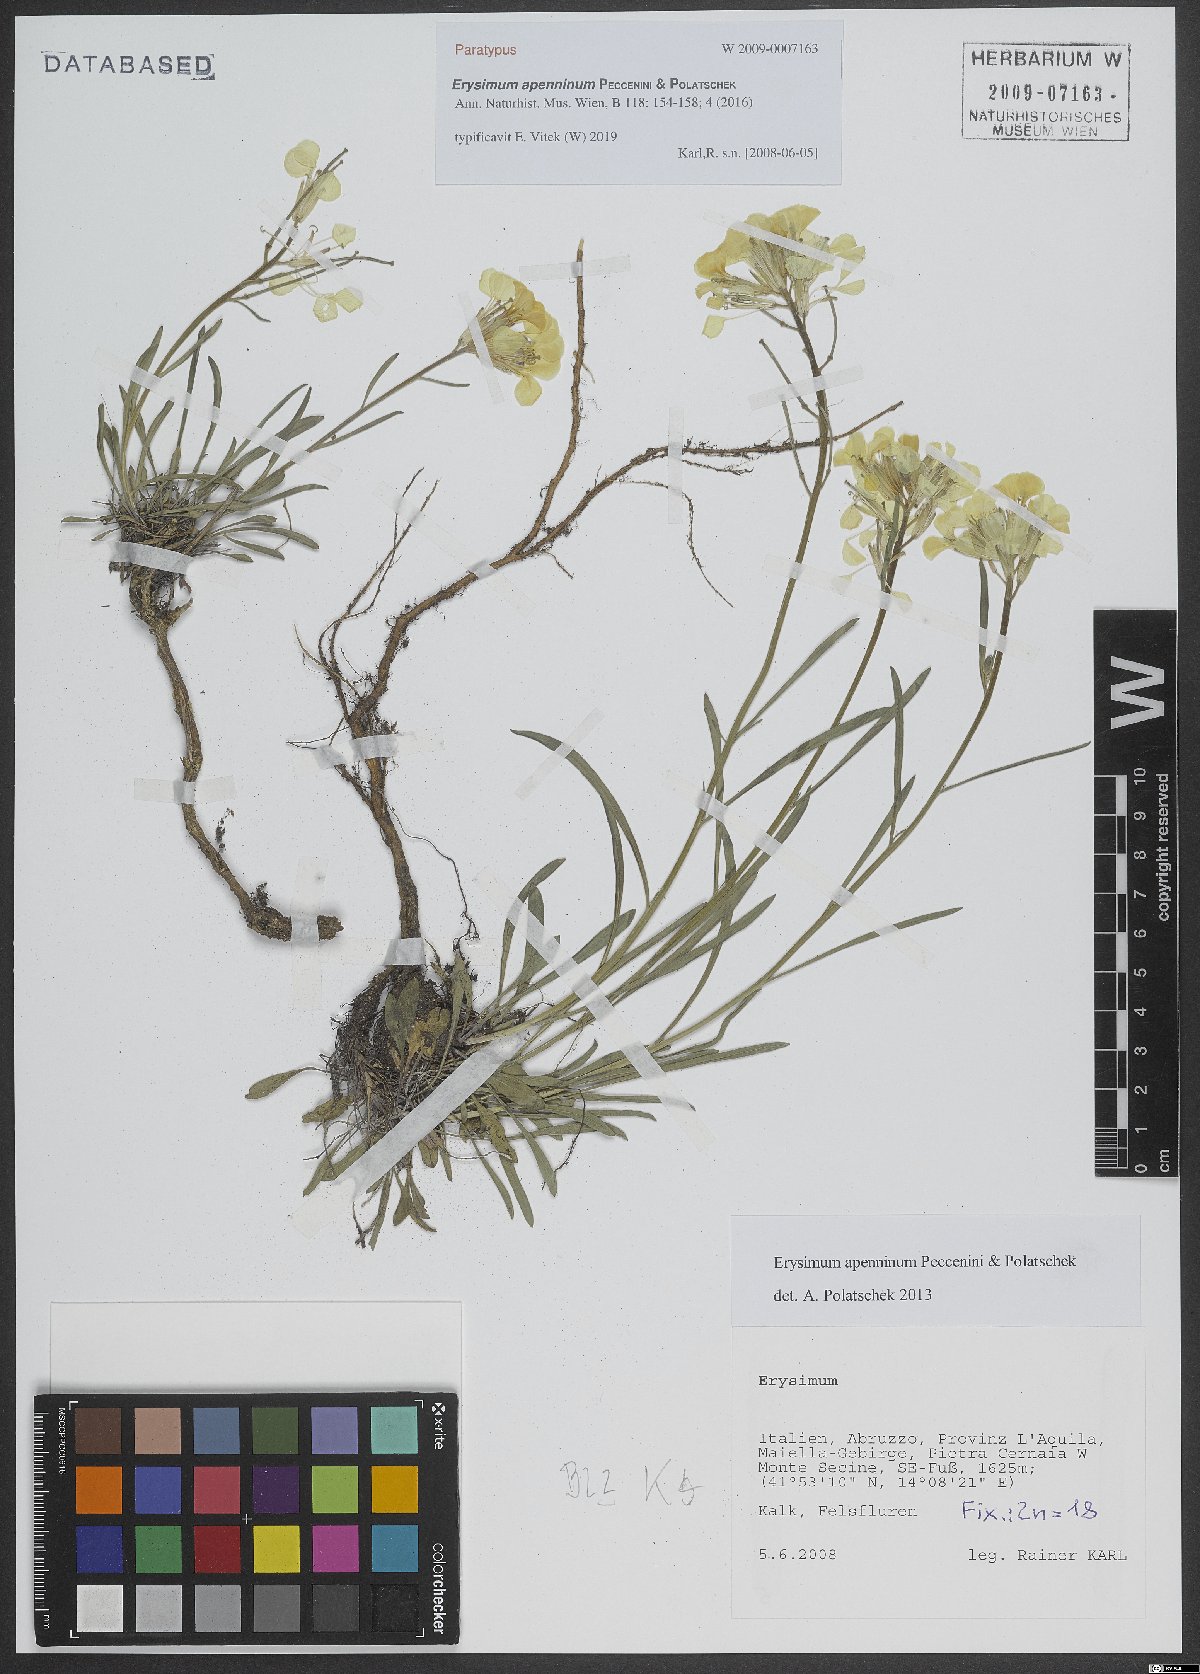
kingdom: Plantae
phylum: Tracheophyta
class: Magnoliopsida
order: Brassicales
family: Brassicaceae
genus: Erysimum
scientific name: Erysimum apenninum
